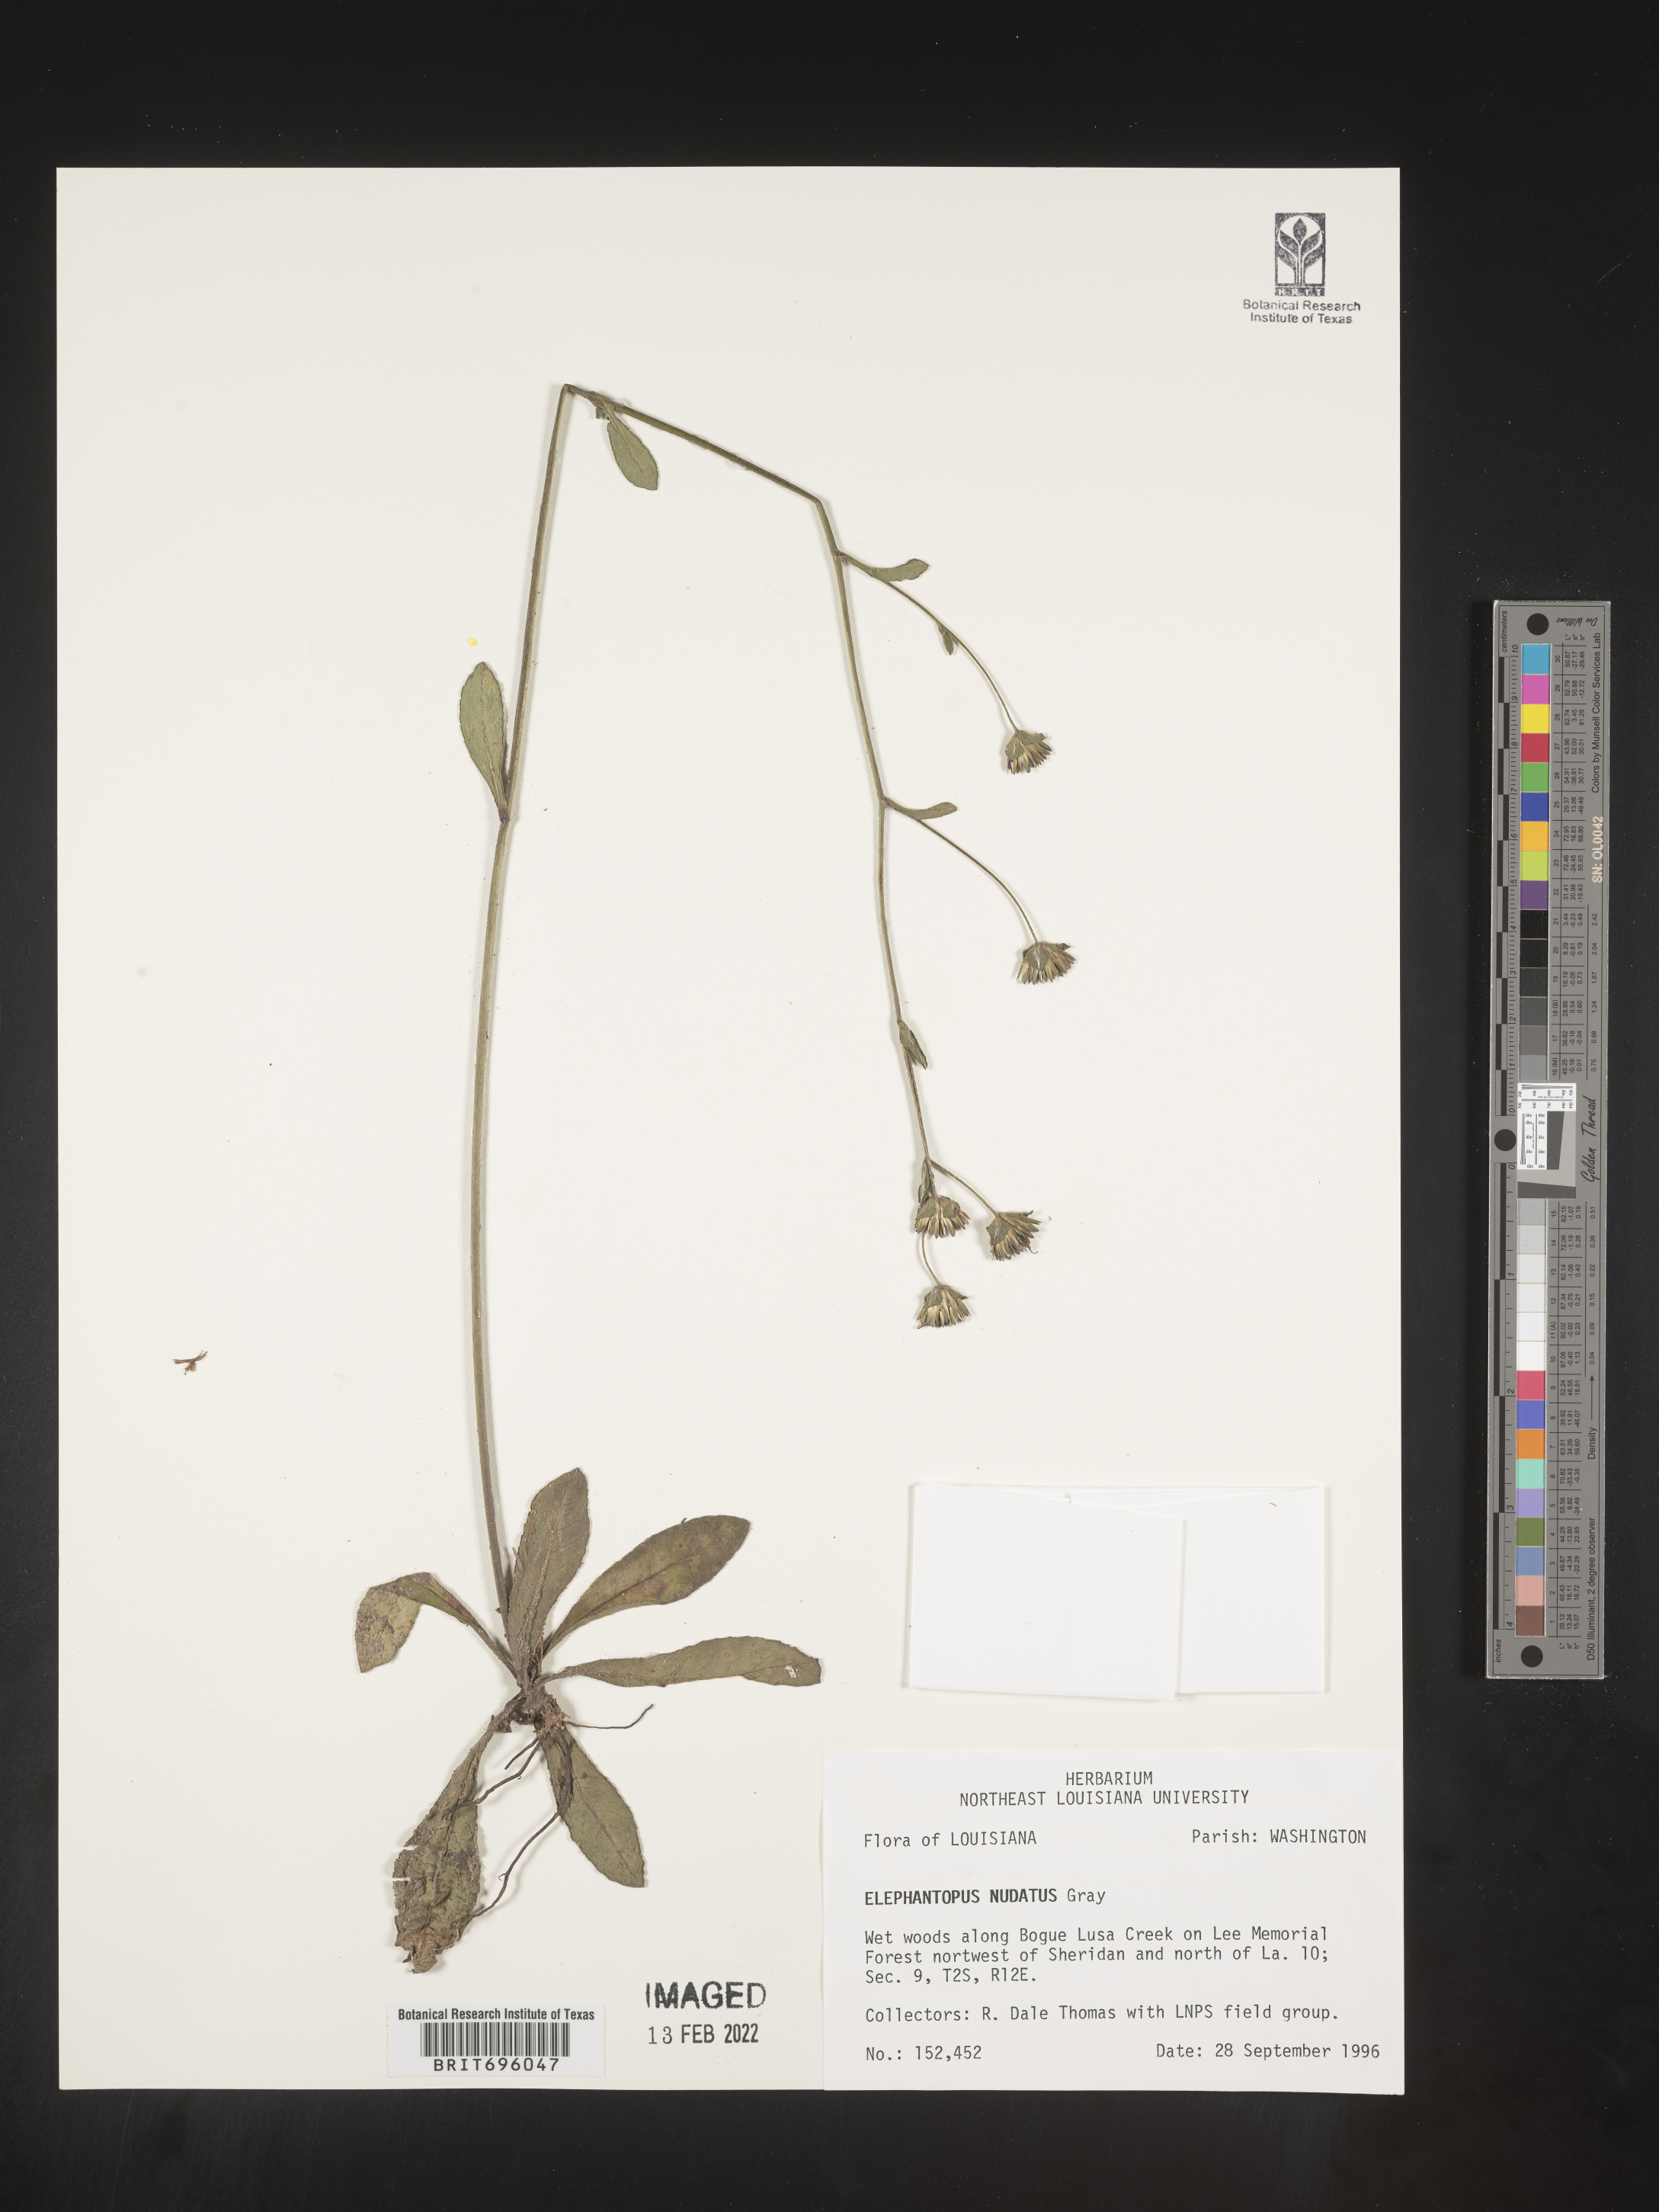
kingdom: Plantae
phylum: Tracheophyta
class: Magnoliopsida
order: Asterales
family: Asteraceae
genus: Elephantopus
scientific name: Elephantopus nudatus
